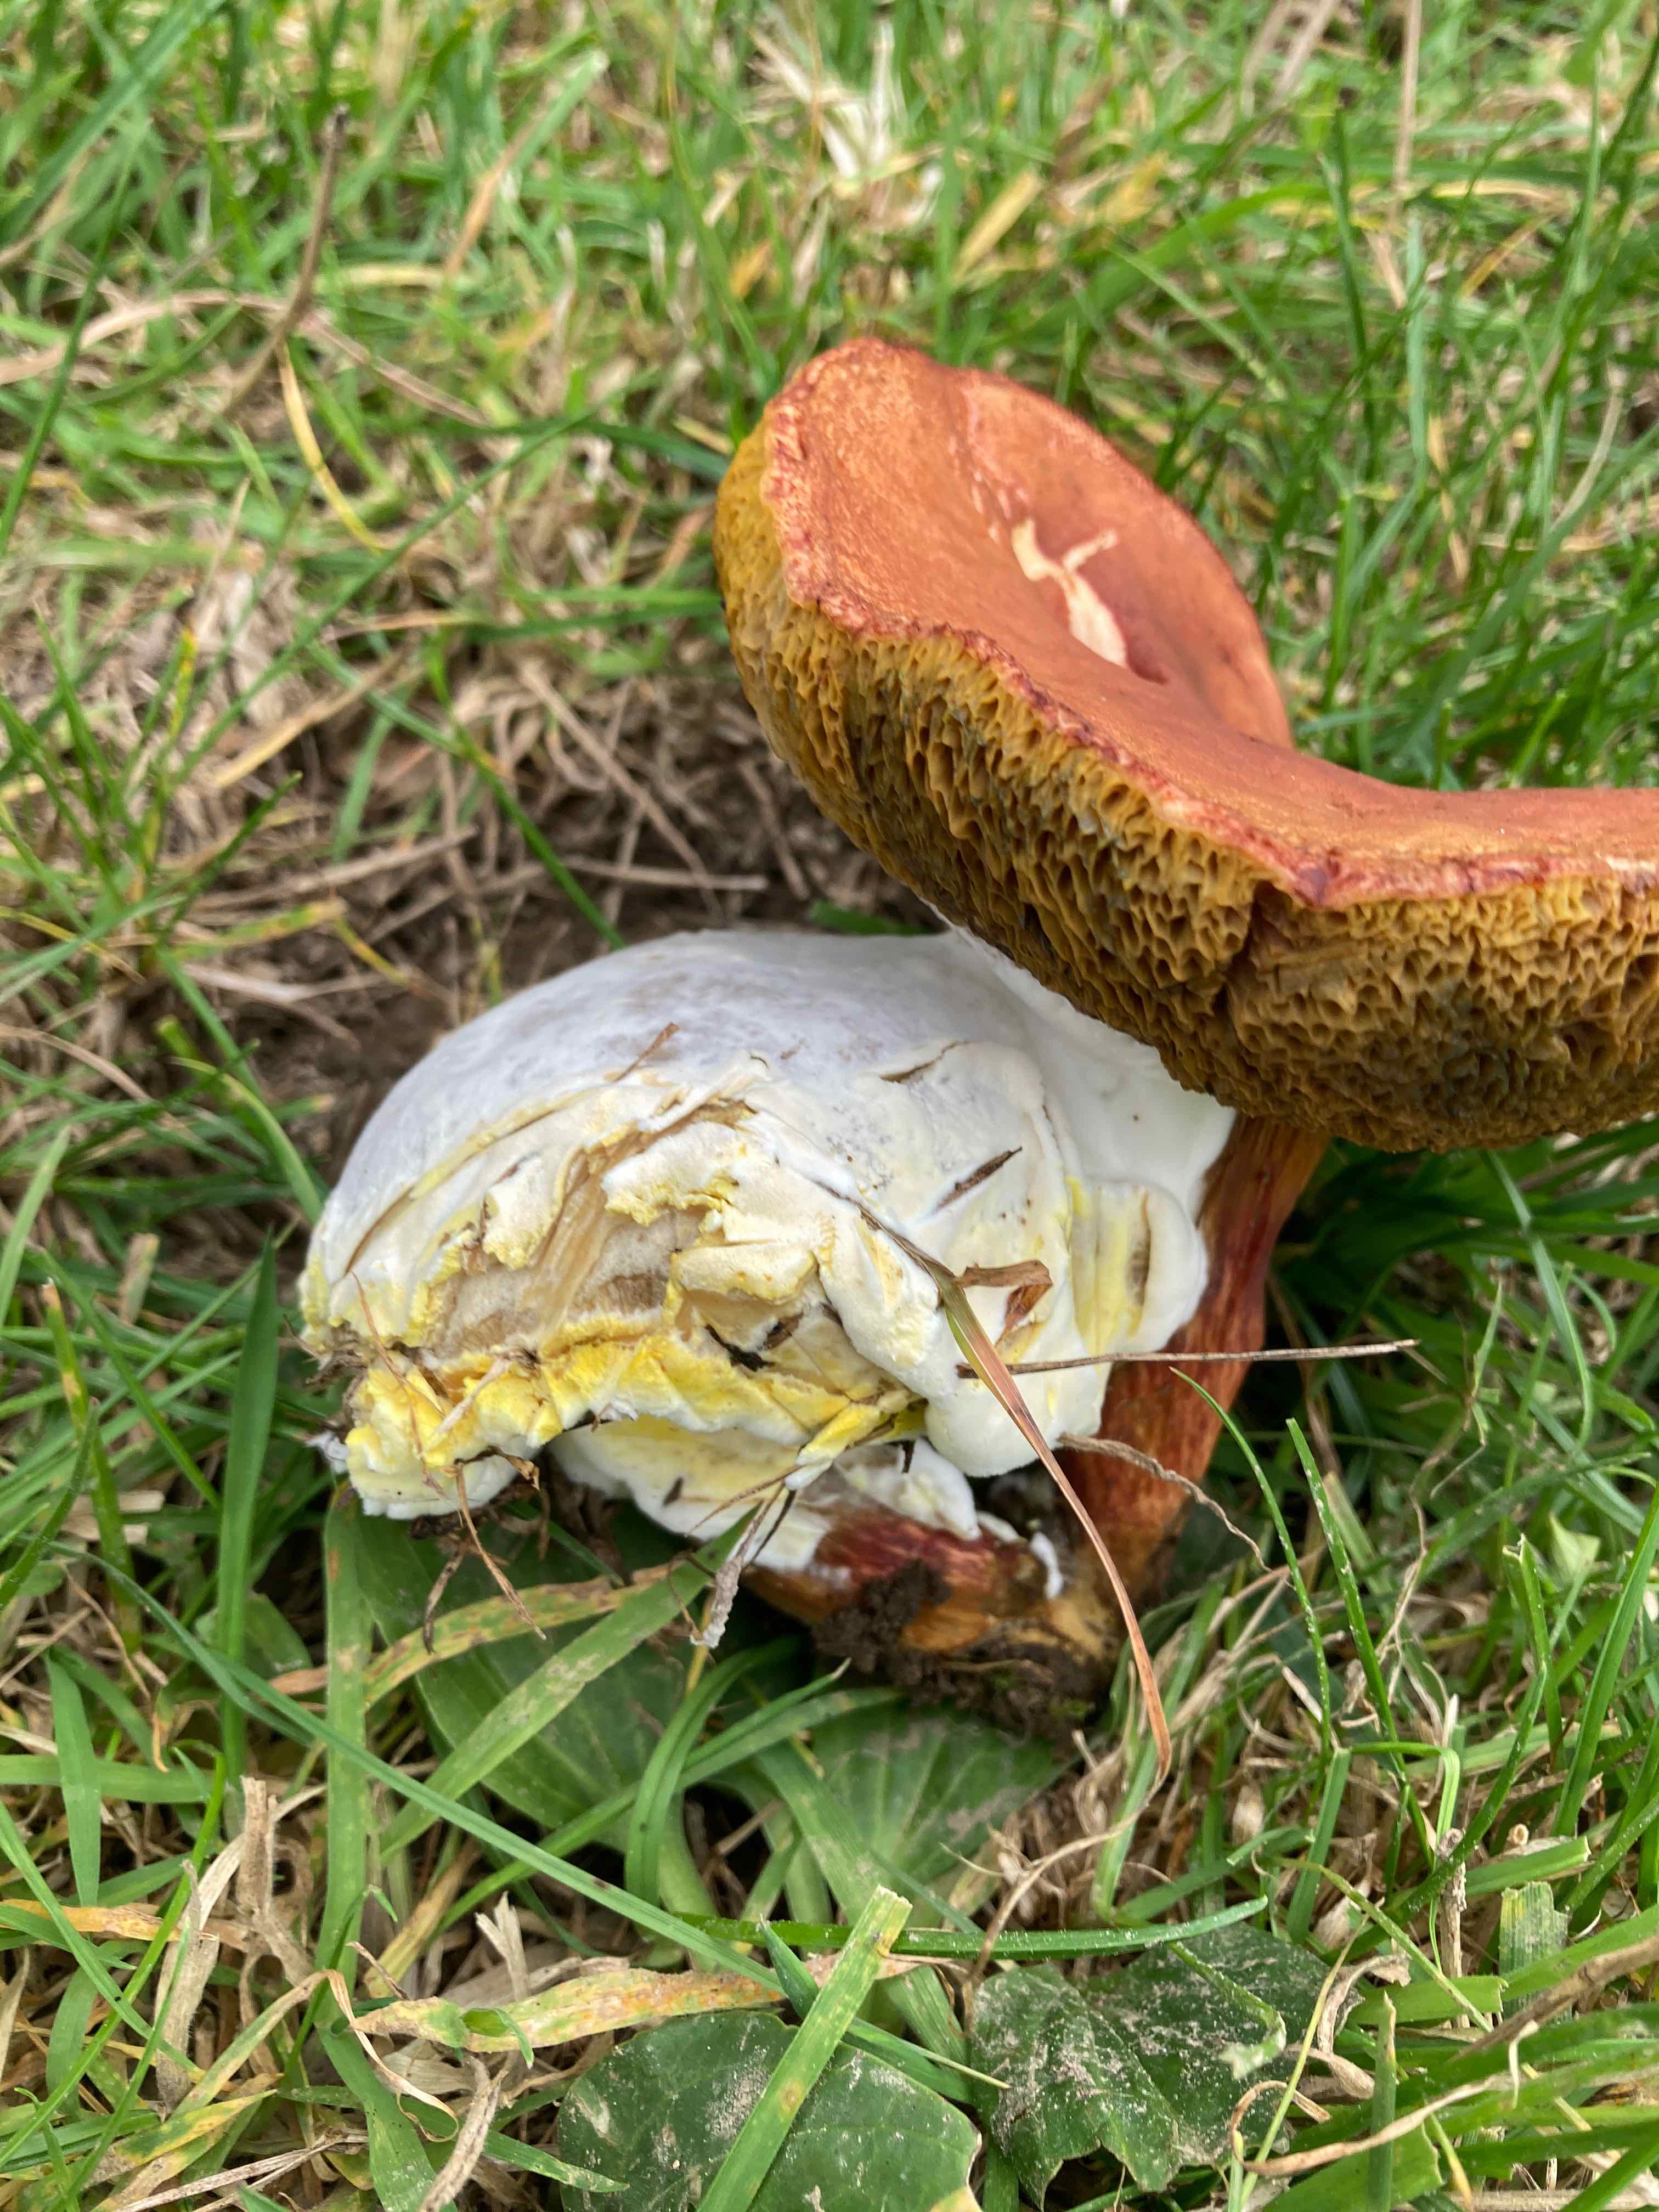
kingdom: Fungi
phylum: Ascomycota
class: Sordariomycetes
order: Hypocreales
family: Hypocreaceae
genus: Hypomyces
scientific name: Hypomyces microspermus
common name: dværgrørhat-snylteskorpe
